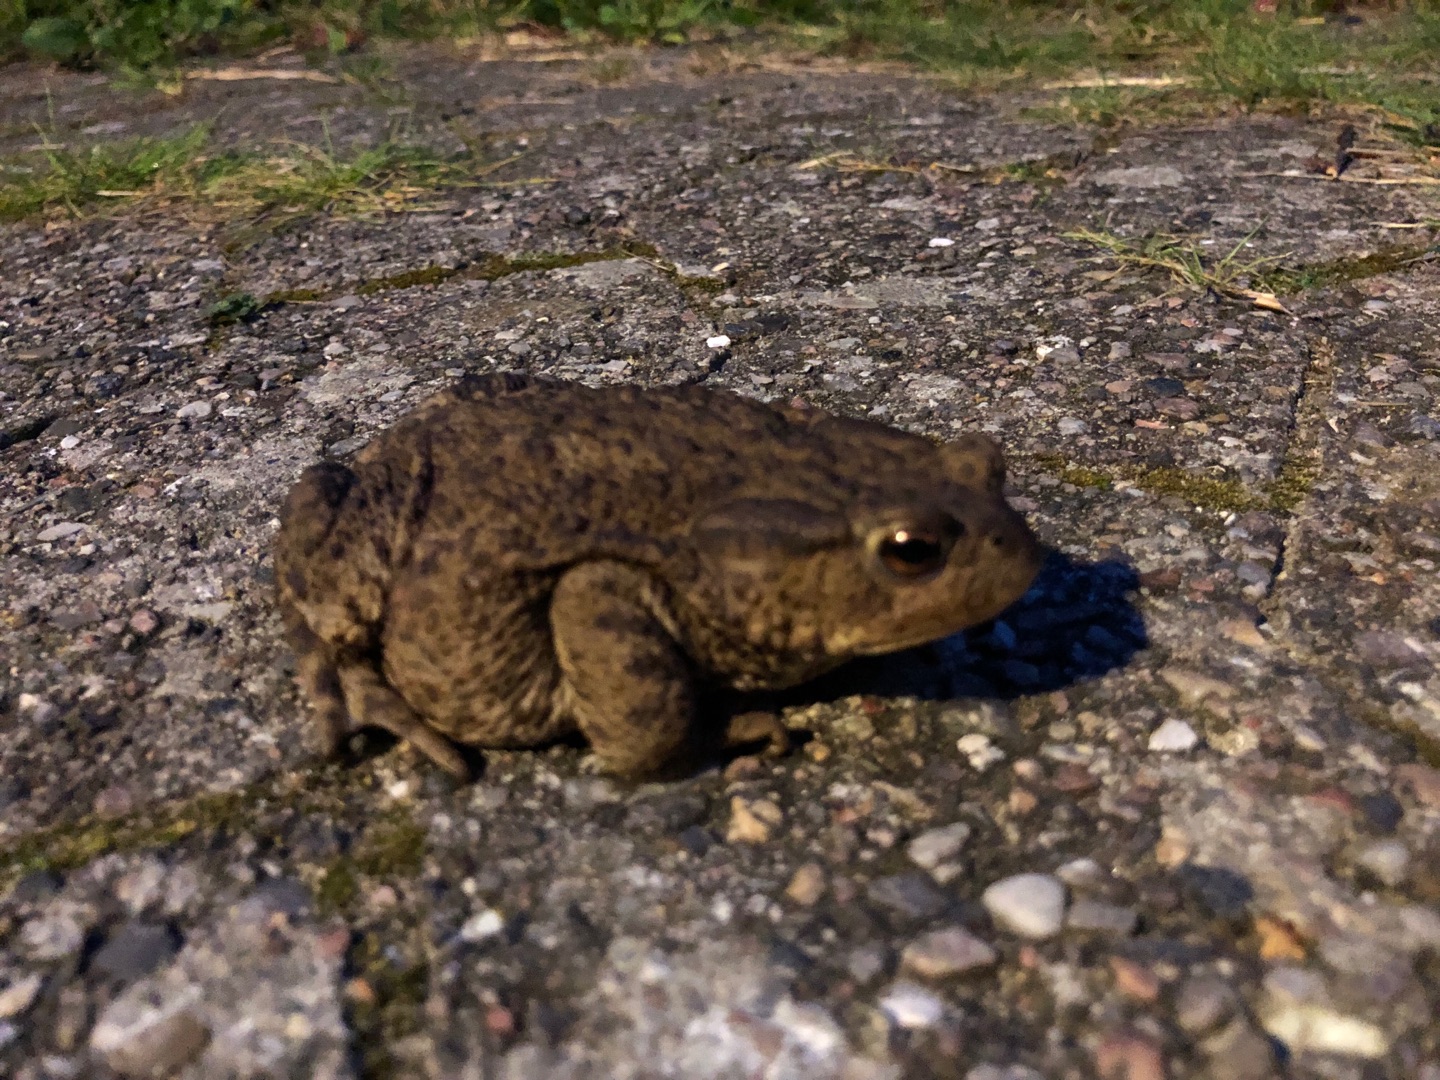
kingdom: Animalia
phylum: Chordata
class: Amphibia
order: Anura
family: Bufonidae
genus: Bufo
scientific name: Bufo bufo
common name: Skrubtudse
